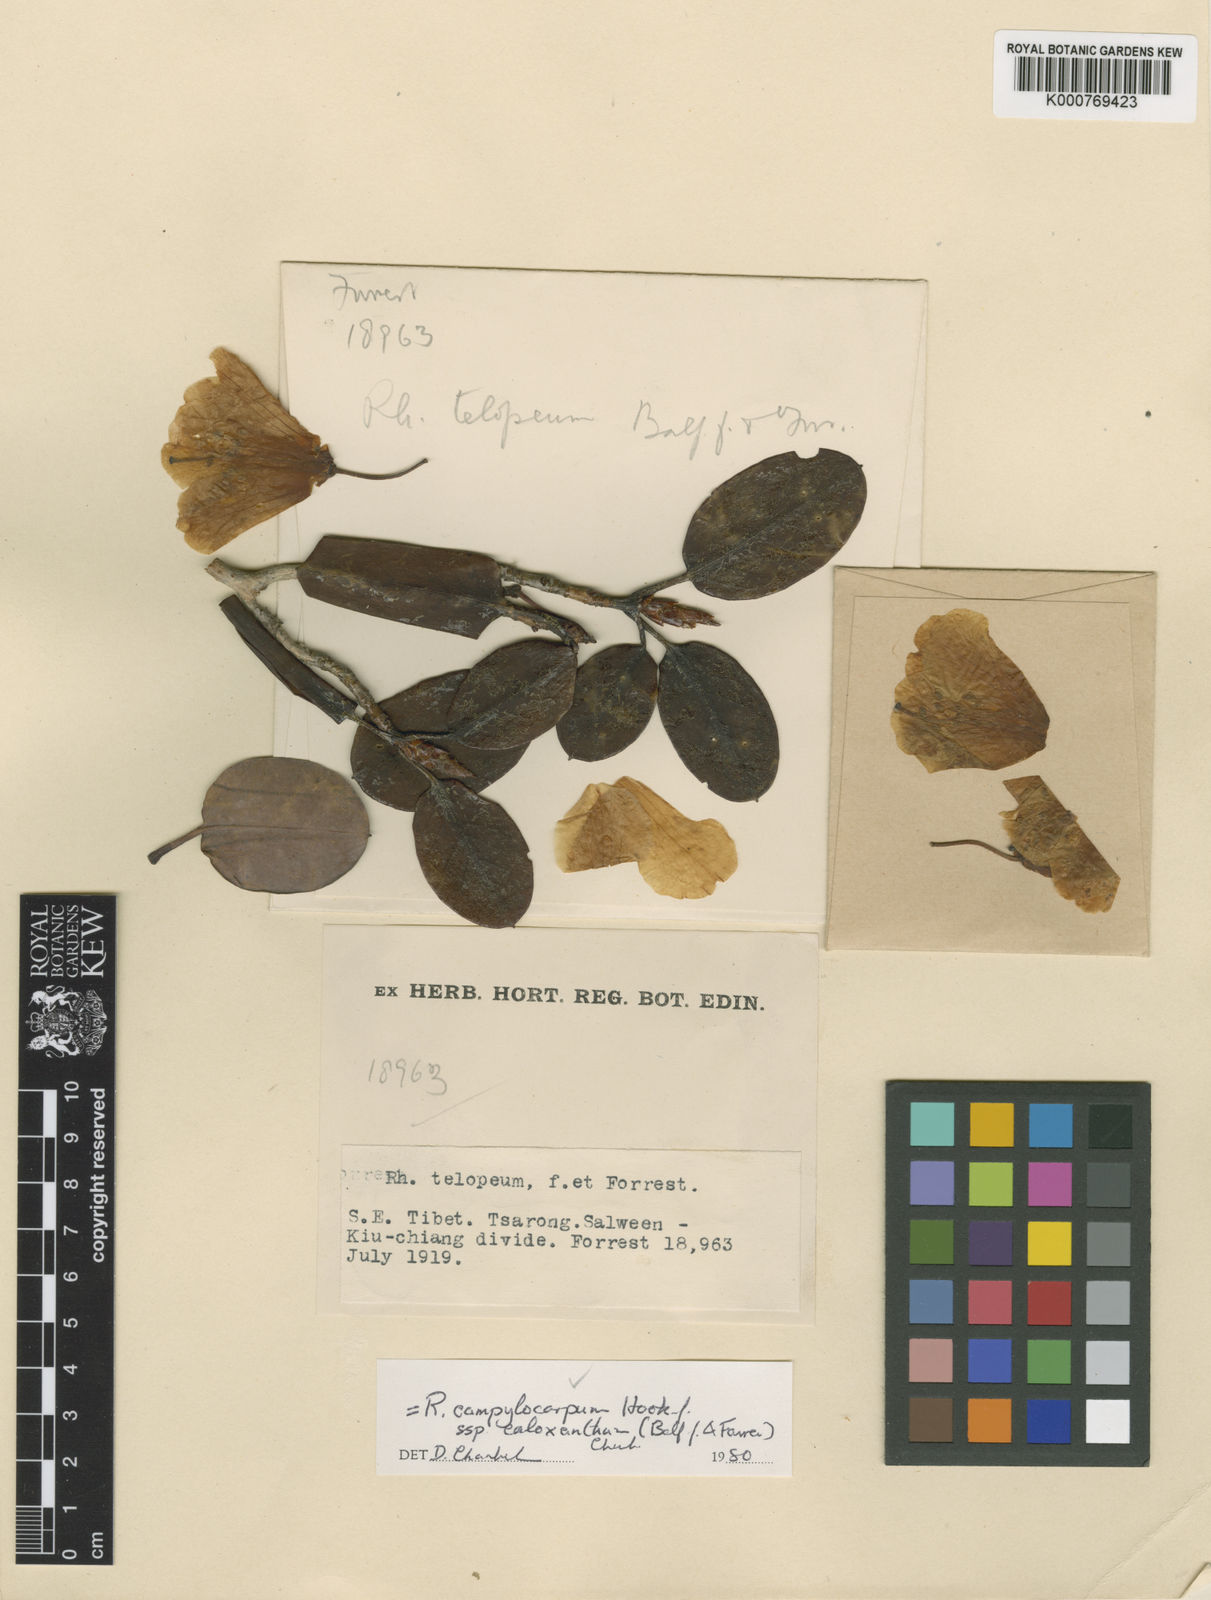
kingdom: Plantae
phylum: Tracheophyta
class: Magnoliopsida
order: Ericales
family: Ericaceae
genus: Rhododendron
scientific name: Rhododendron callimorphum
